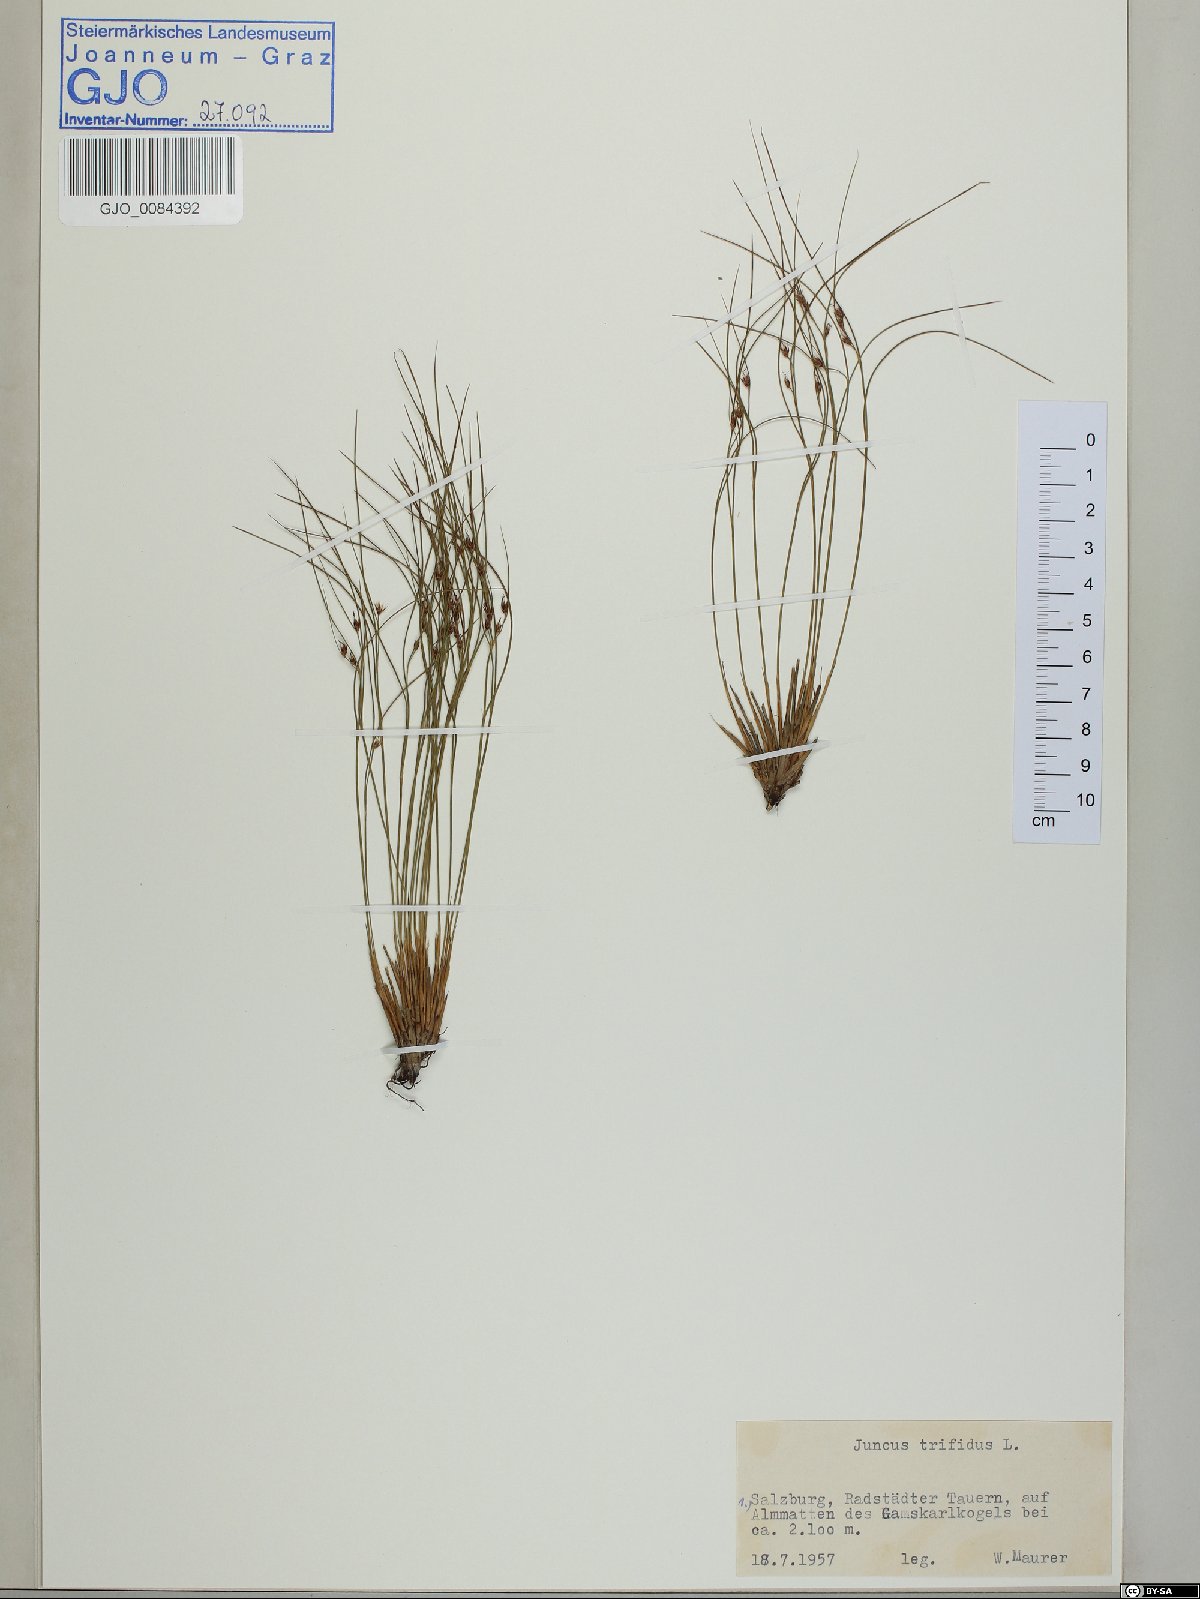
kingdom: Plantae
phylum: Tracheophyta
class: Liliopsida
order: Poales
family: Juncaceae
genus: Oreojuncus
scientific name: Oreojuncus trifidus
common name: Highland rush
